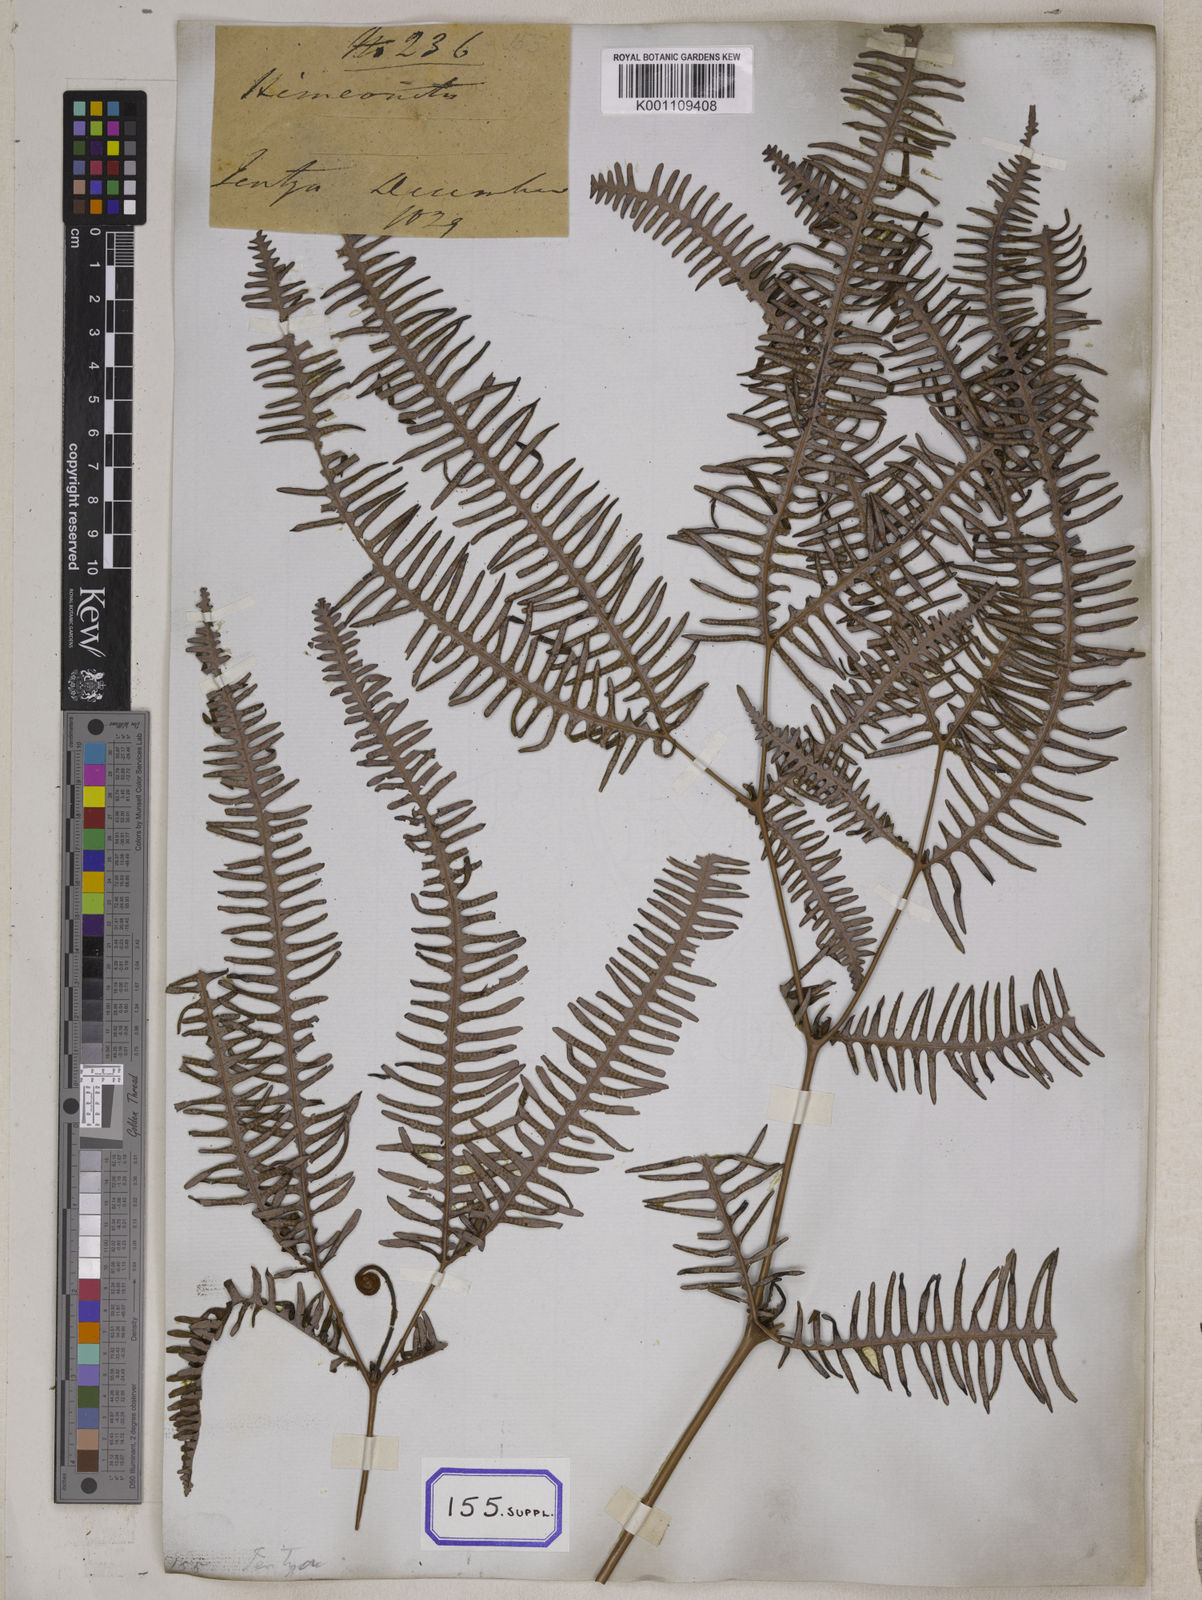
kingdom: Plantae
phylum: Tracheophyta
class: Polypodiopsida
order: Gleicheniales
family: Gleicheniaceae
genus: Dicranopteris
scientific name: Dicranopteris linearis
